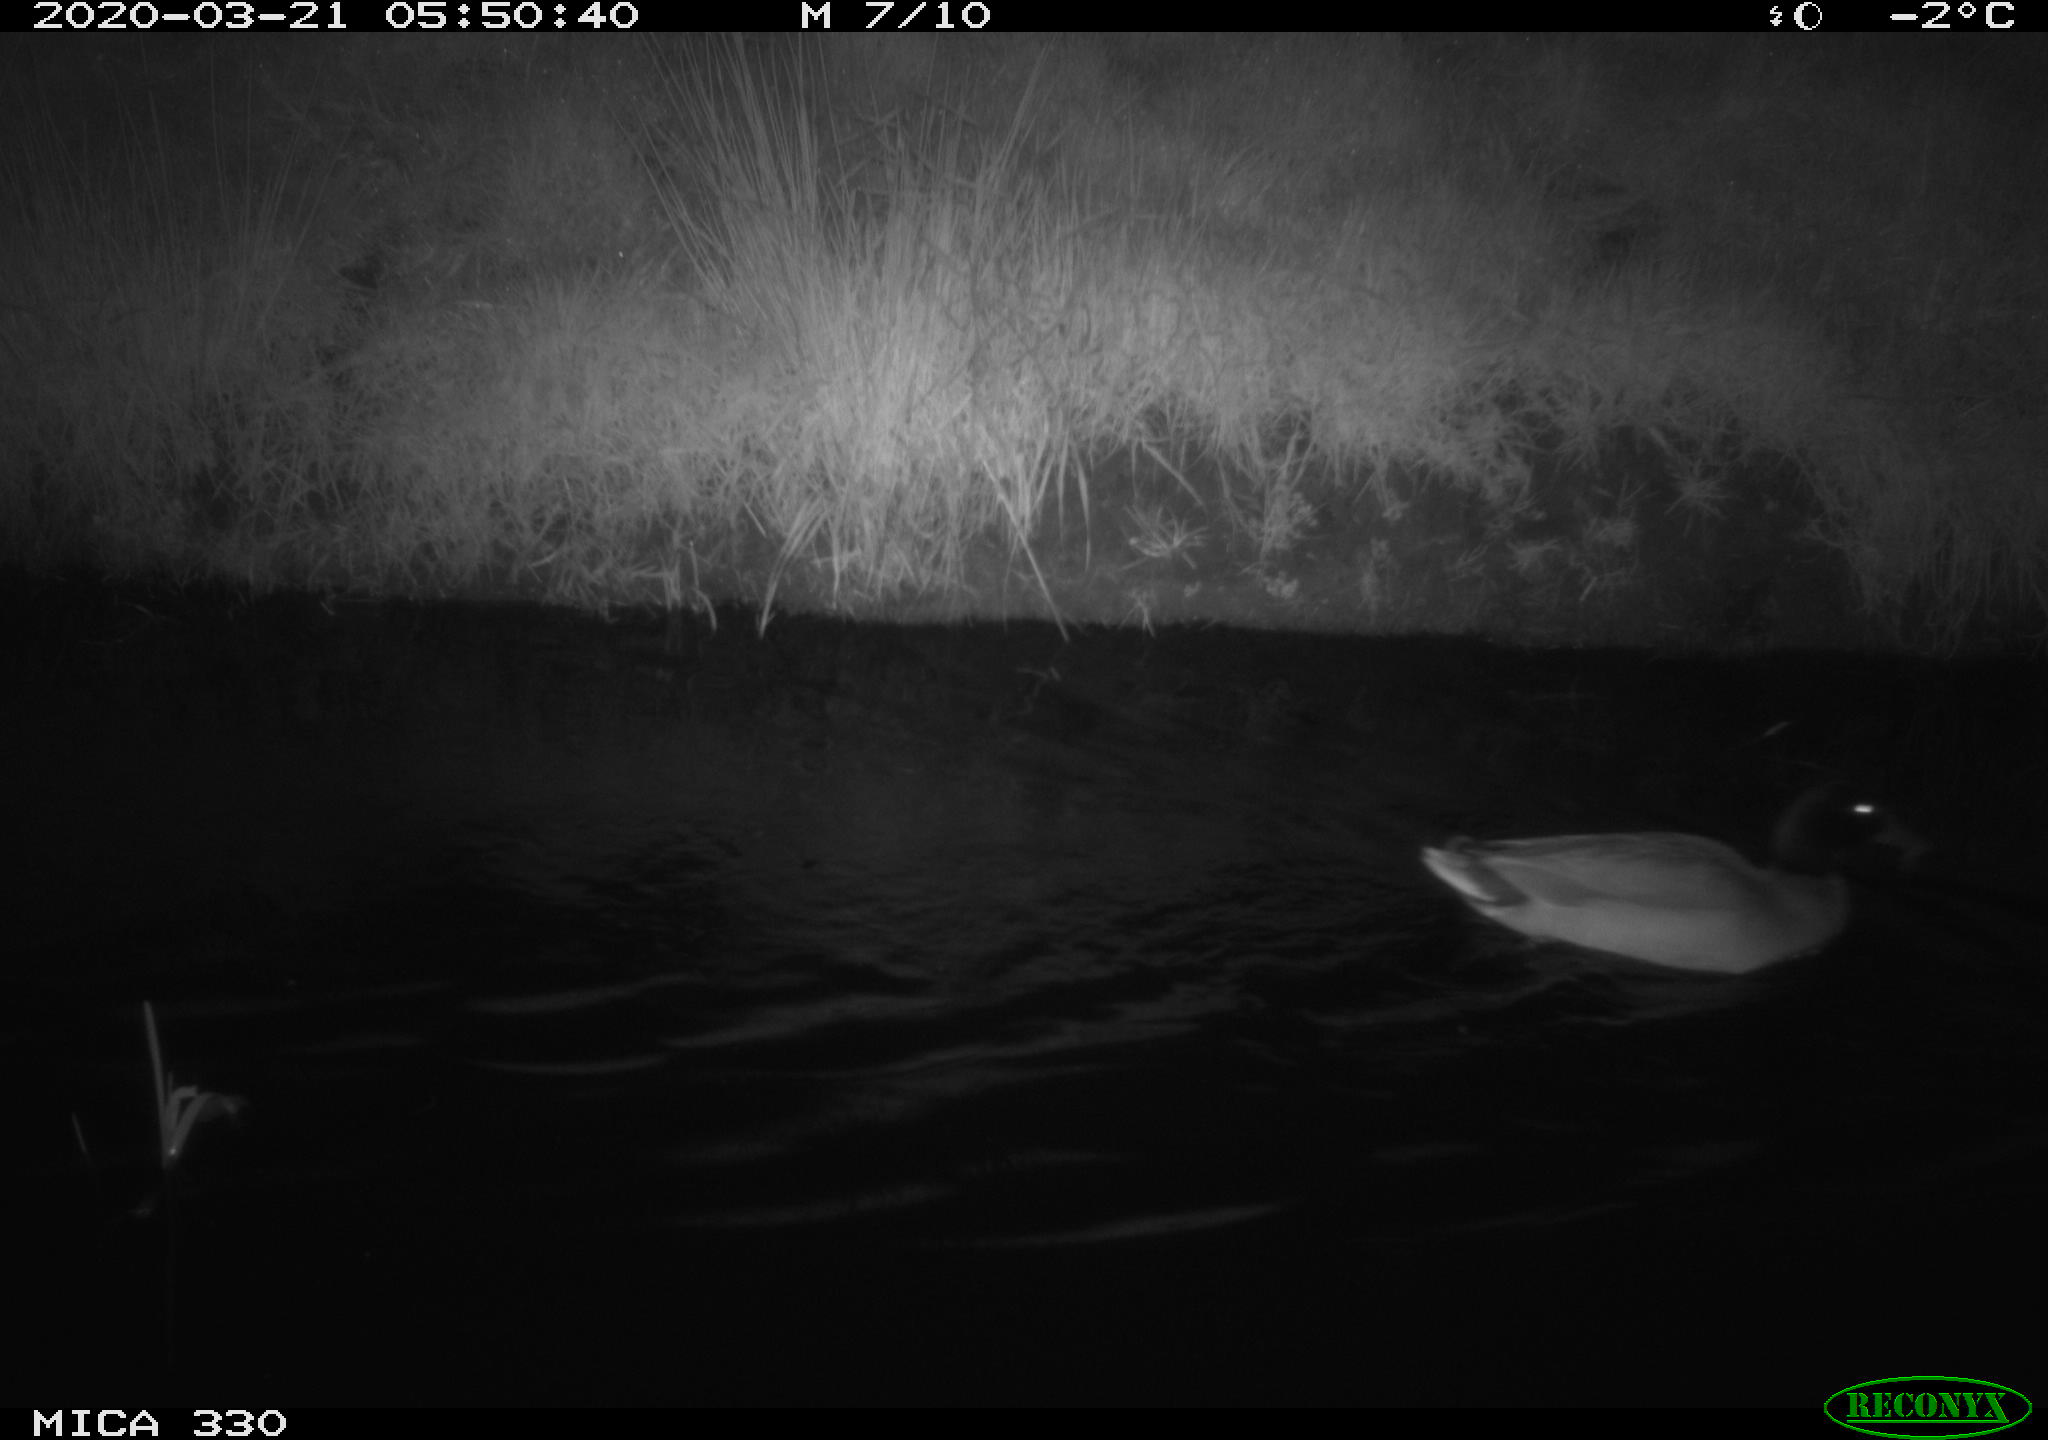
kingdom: Animalia
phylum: Chordata
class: Aves
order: Anseriformes
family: Anatidae
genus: Anas
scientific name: Anas platyrhynchos
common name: Mallard
